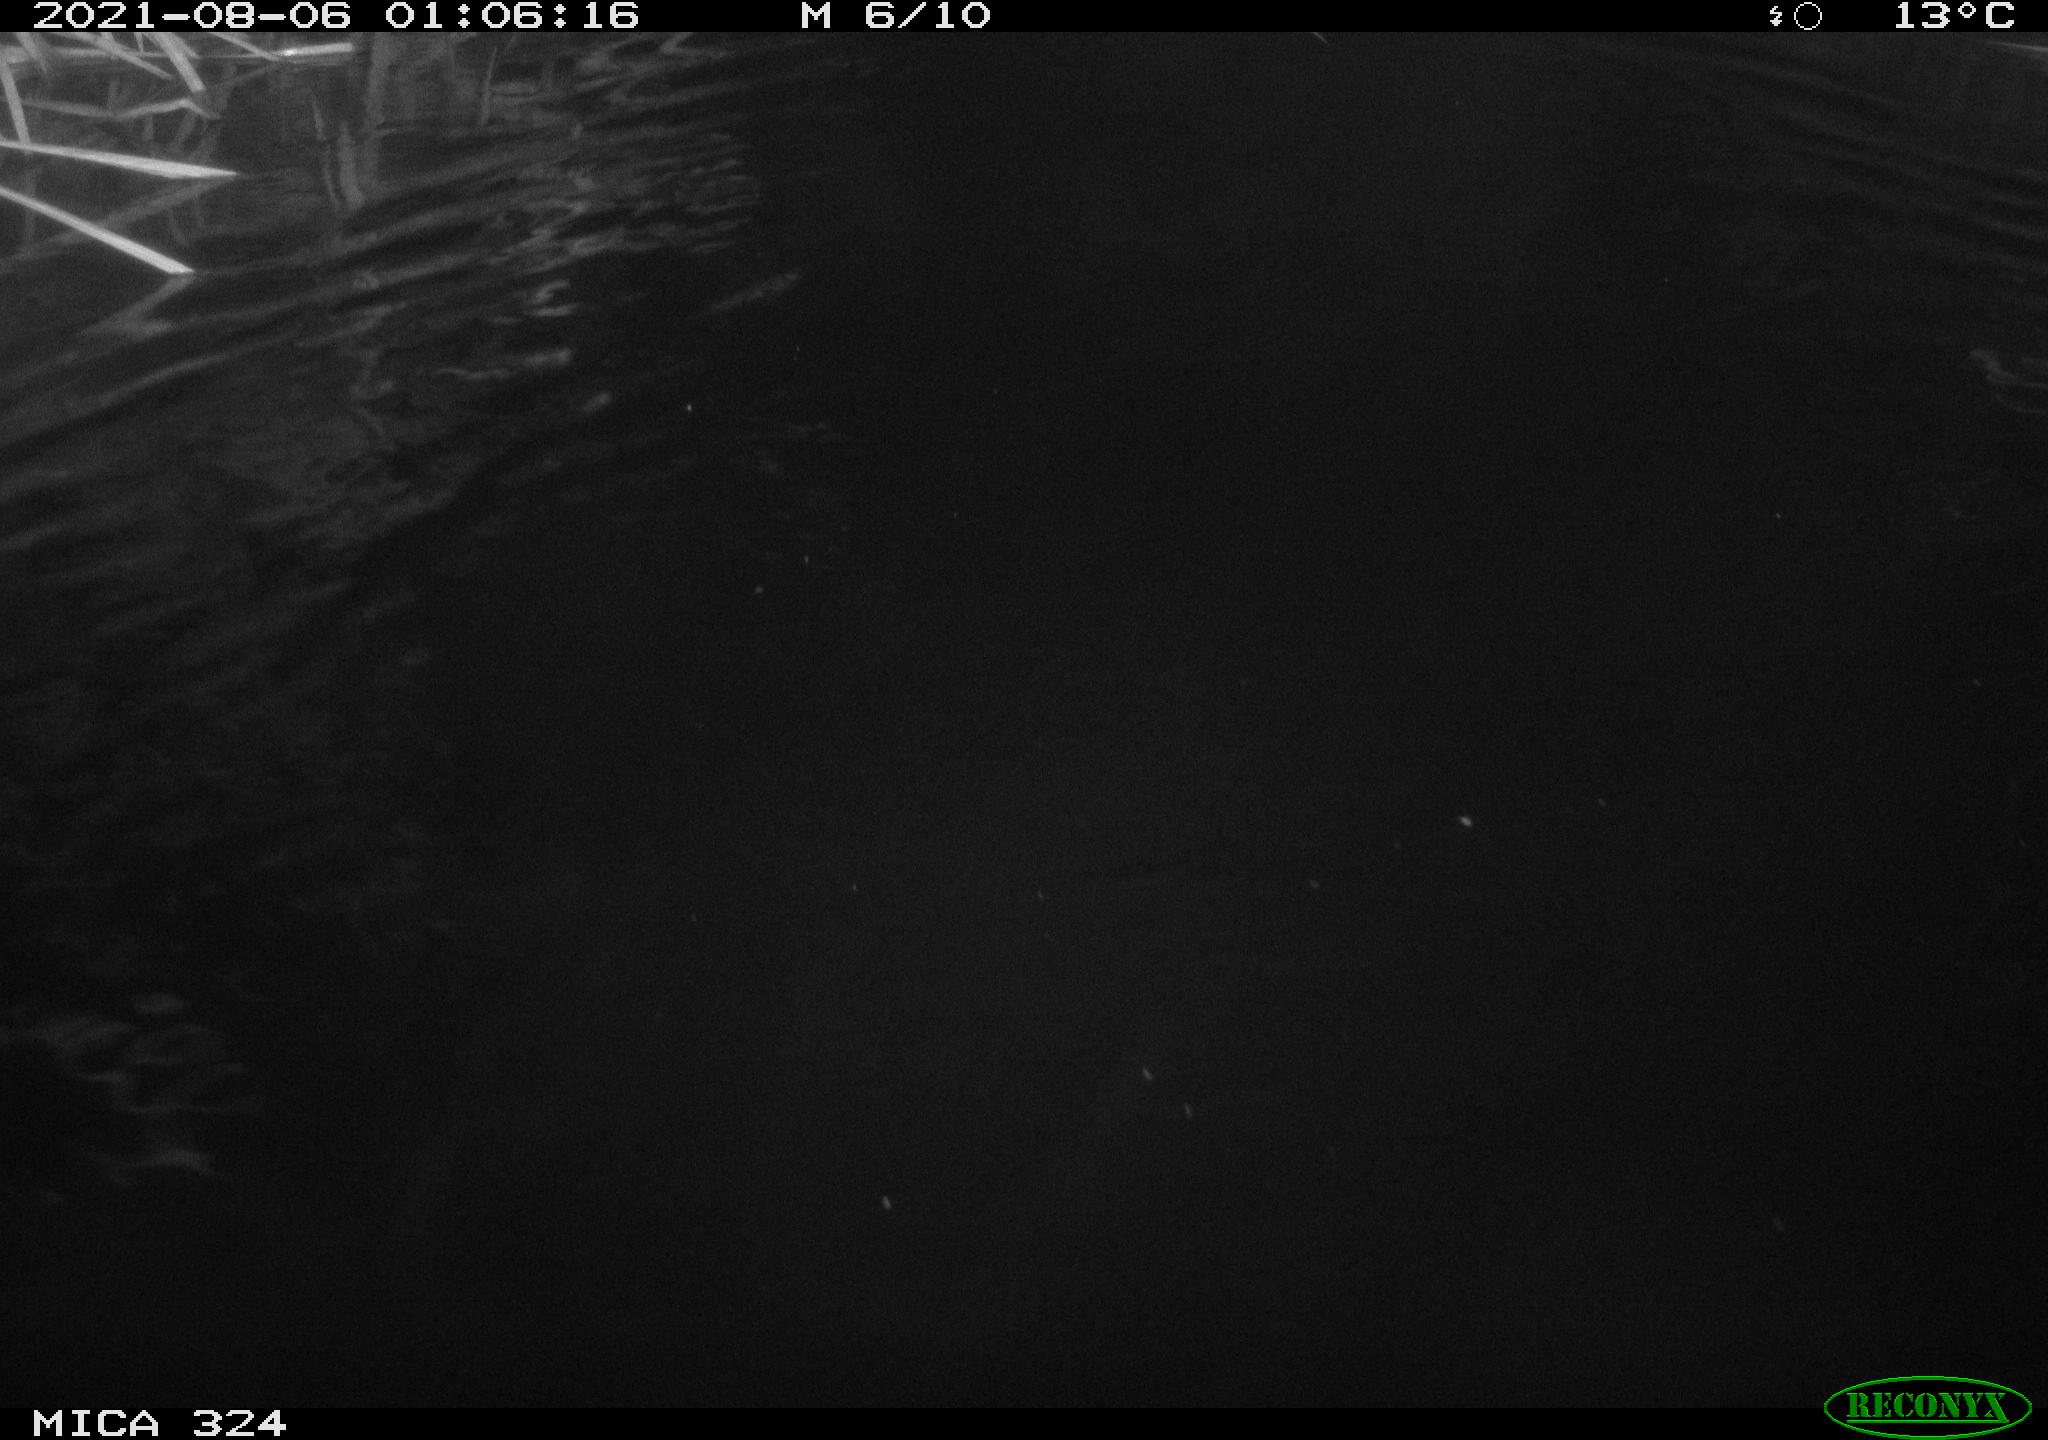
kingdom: Animalia
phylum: Chordata
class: Mammalia
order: Rodentia
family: Cricetidae
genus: Ondatra
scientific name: Ondatra zibethicus
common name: Muskrat
